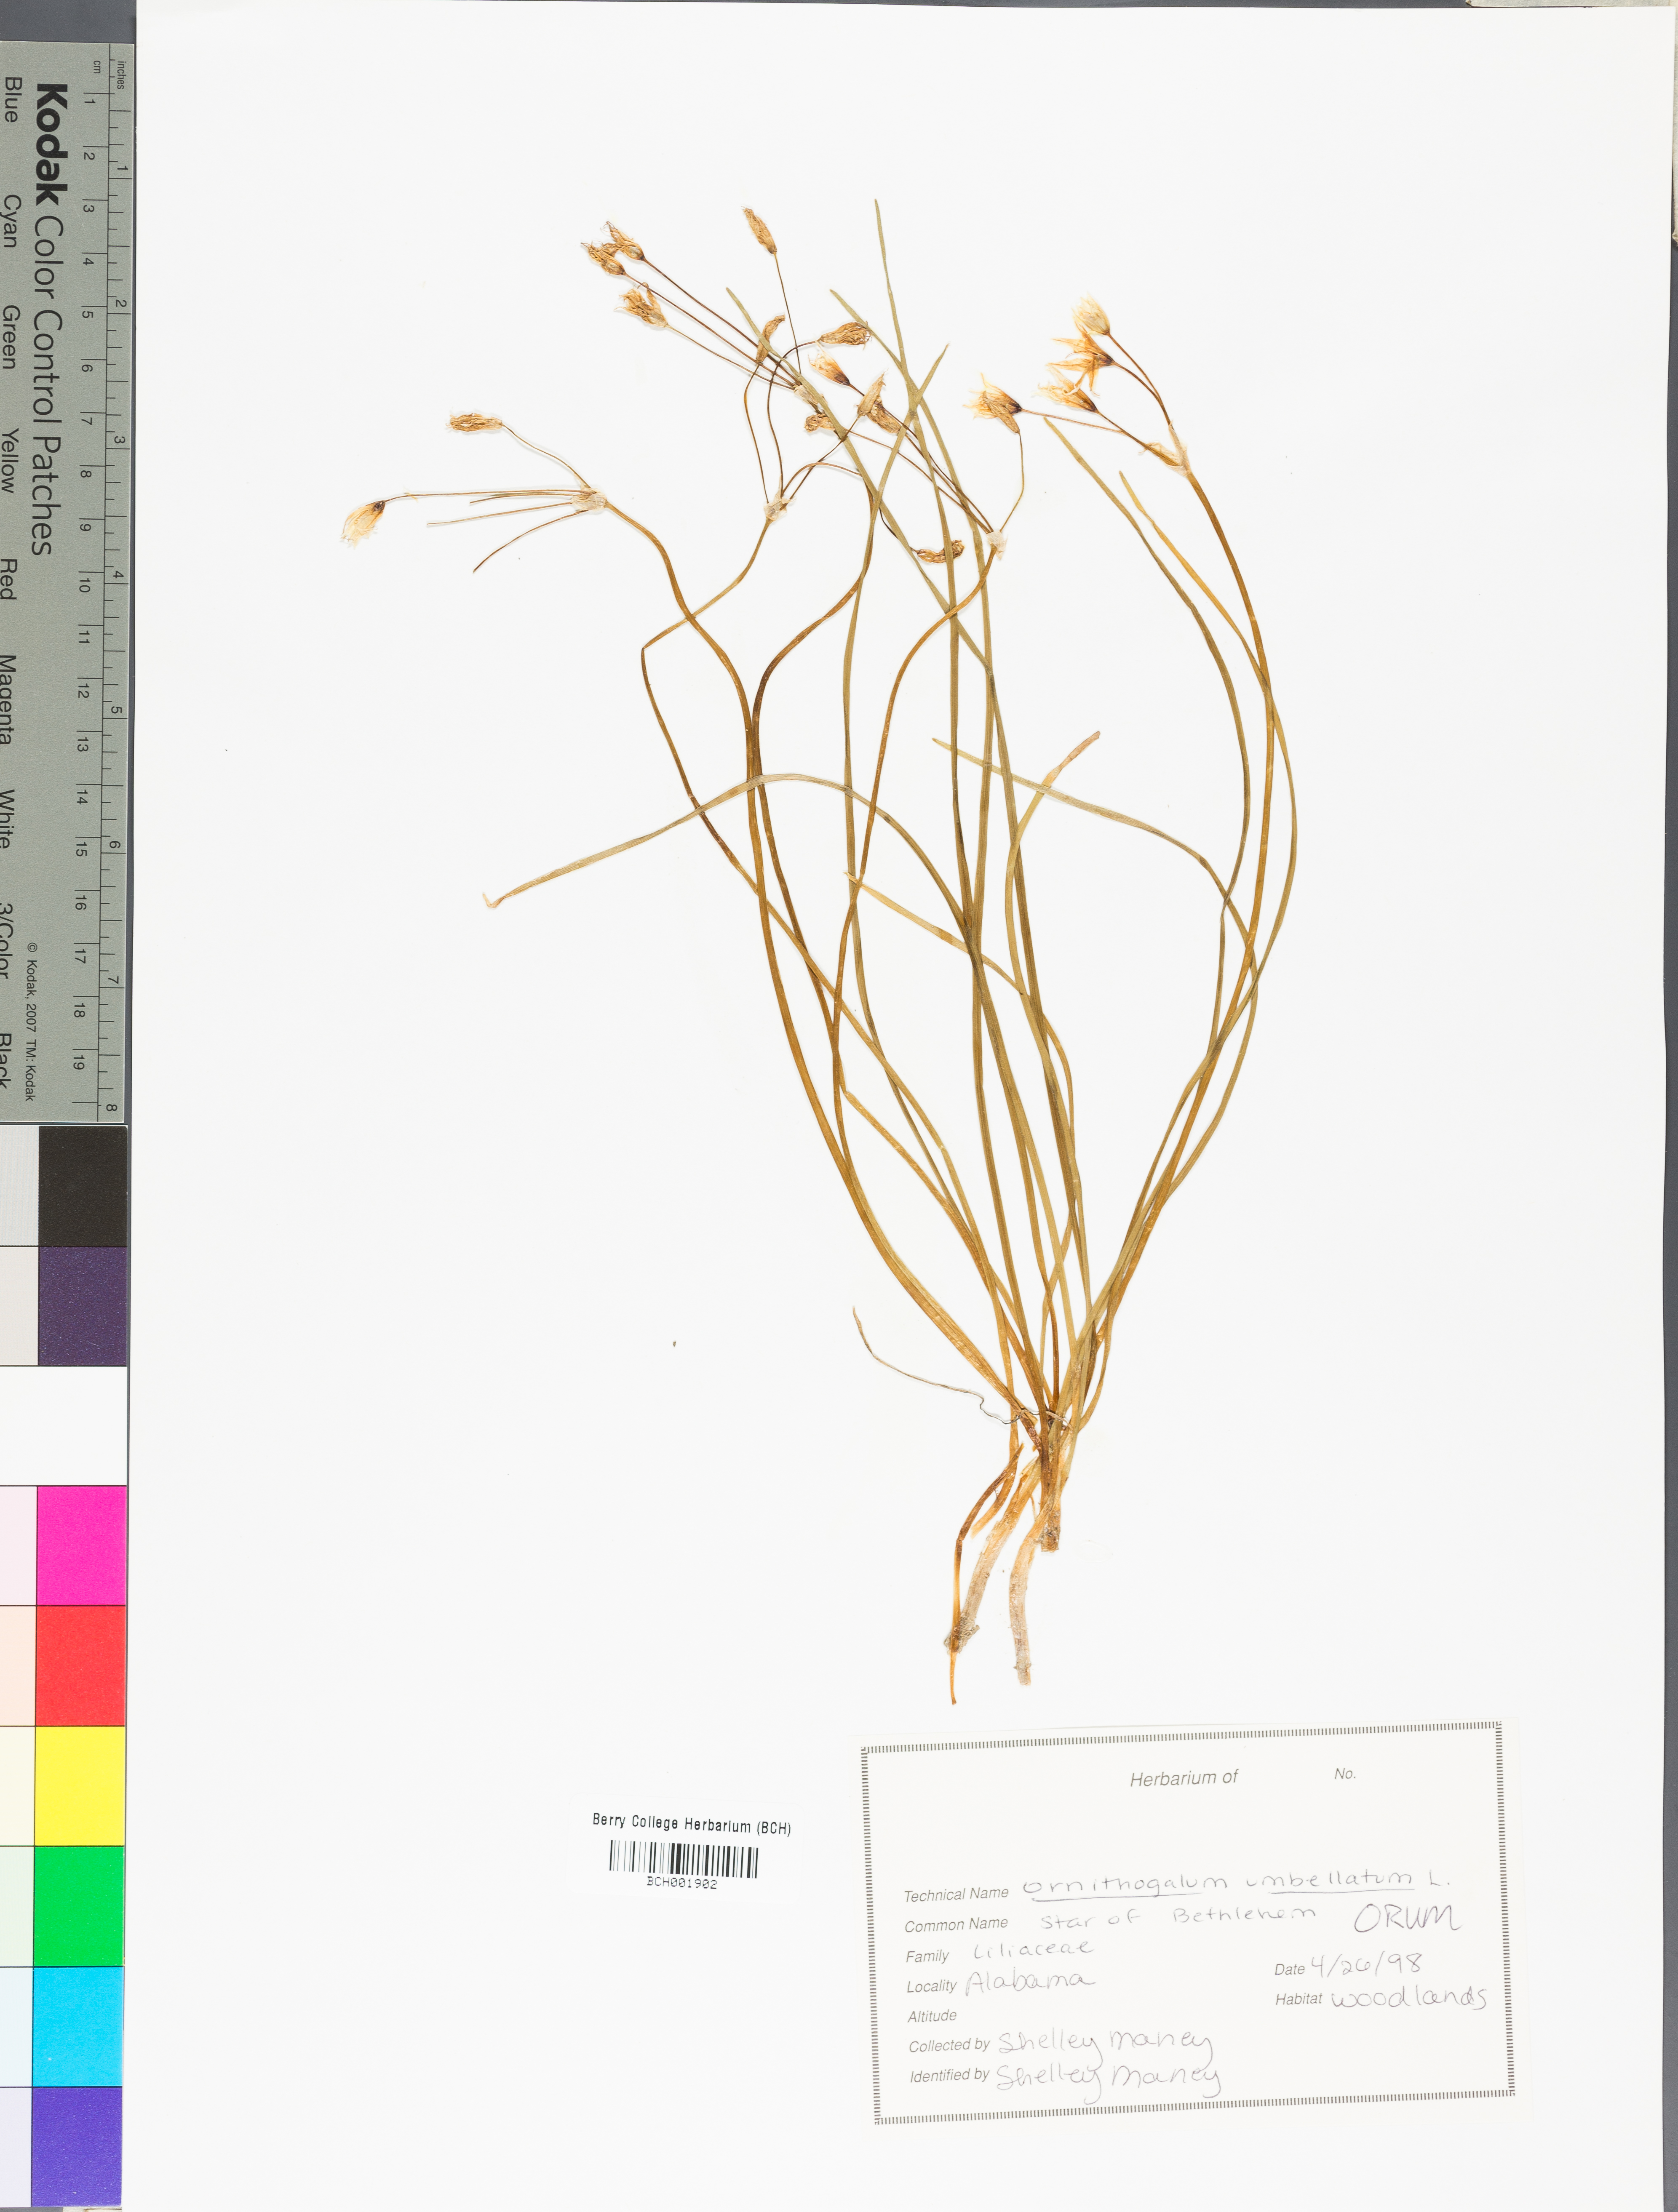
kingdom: Plantae
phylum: Tracheophyta
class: Liliopsida
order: Asparagales
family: Asparagaceae
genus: Ornithogalum
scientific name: Ornithogalum umbellatum
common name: Garden star-of-bethlehem
